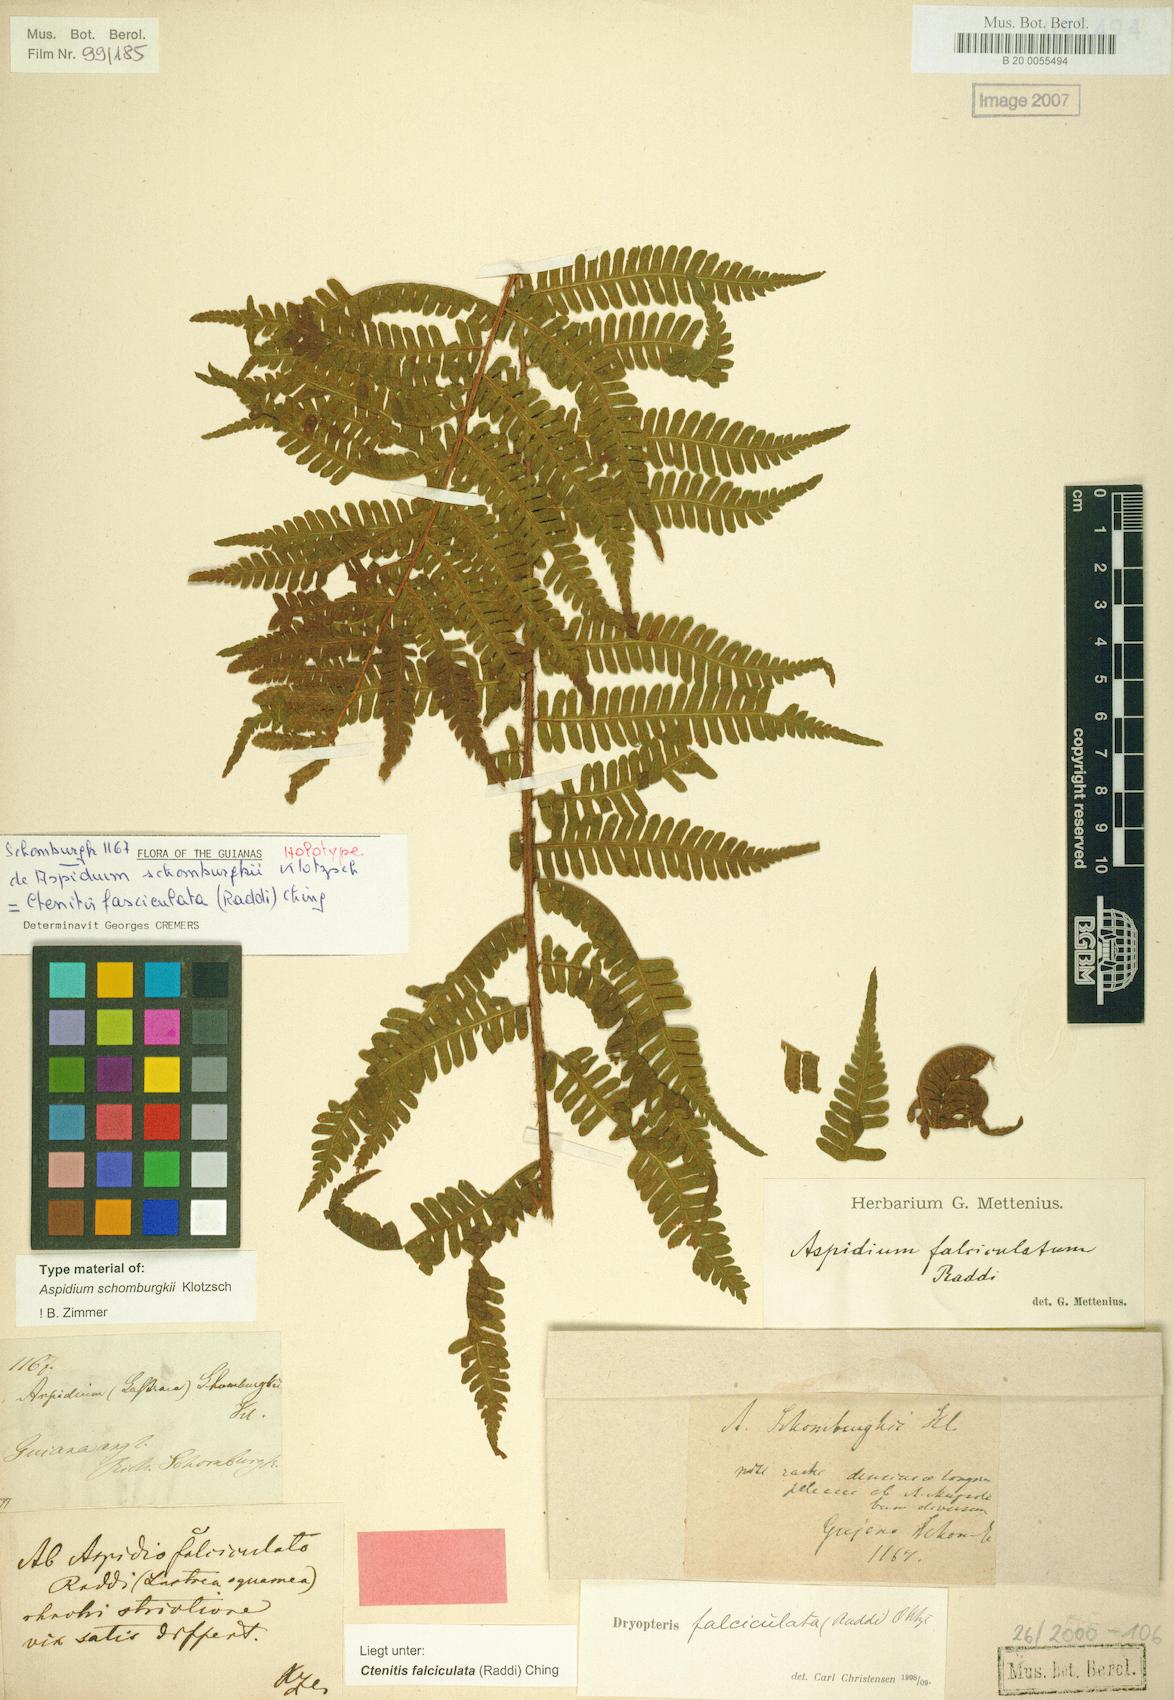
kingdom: Plantae
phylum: Tracheophyta
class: Polypodiopsida
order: Polypodiales
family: Dryopteridaceae
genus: Ctenitis
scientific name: Ctenitis falciculata
